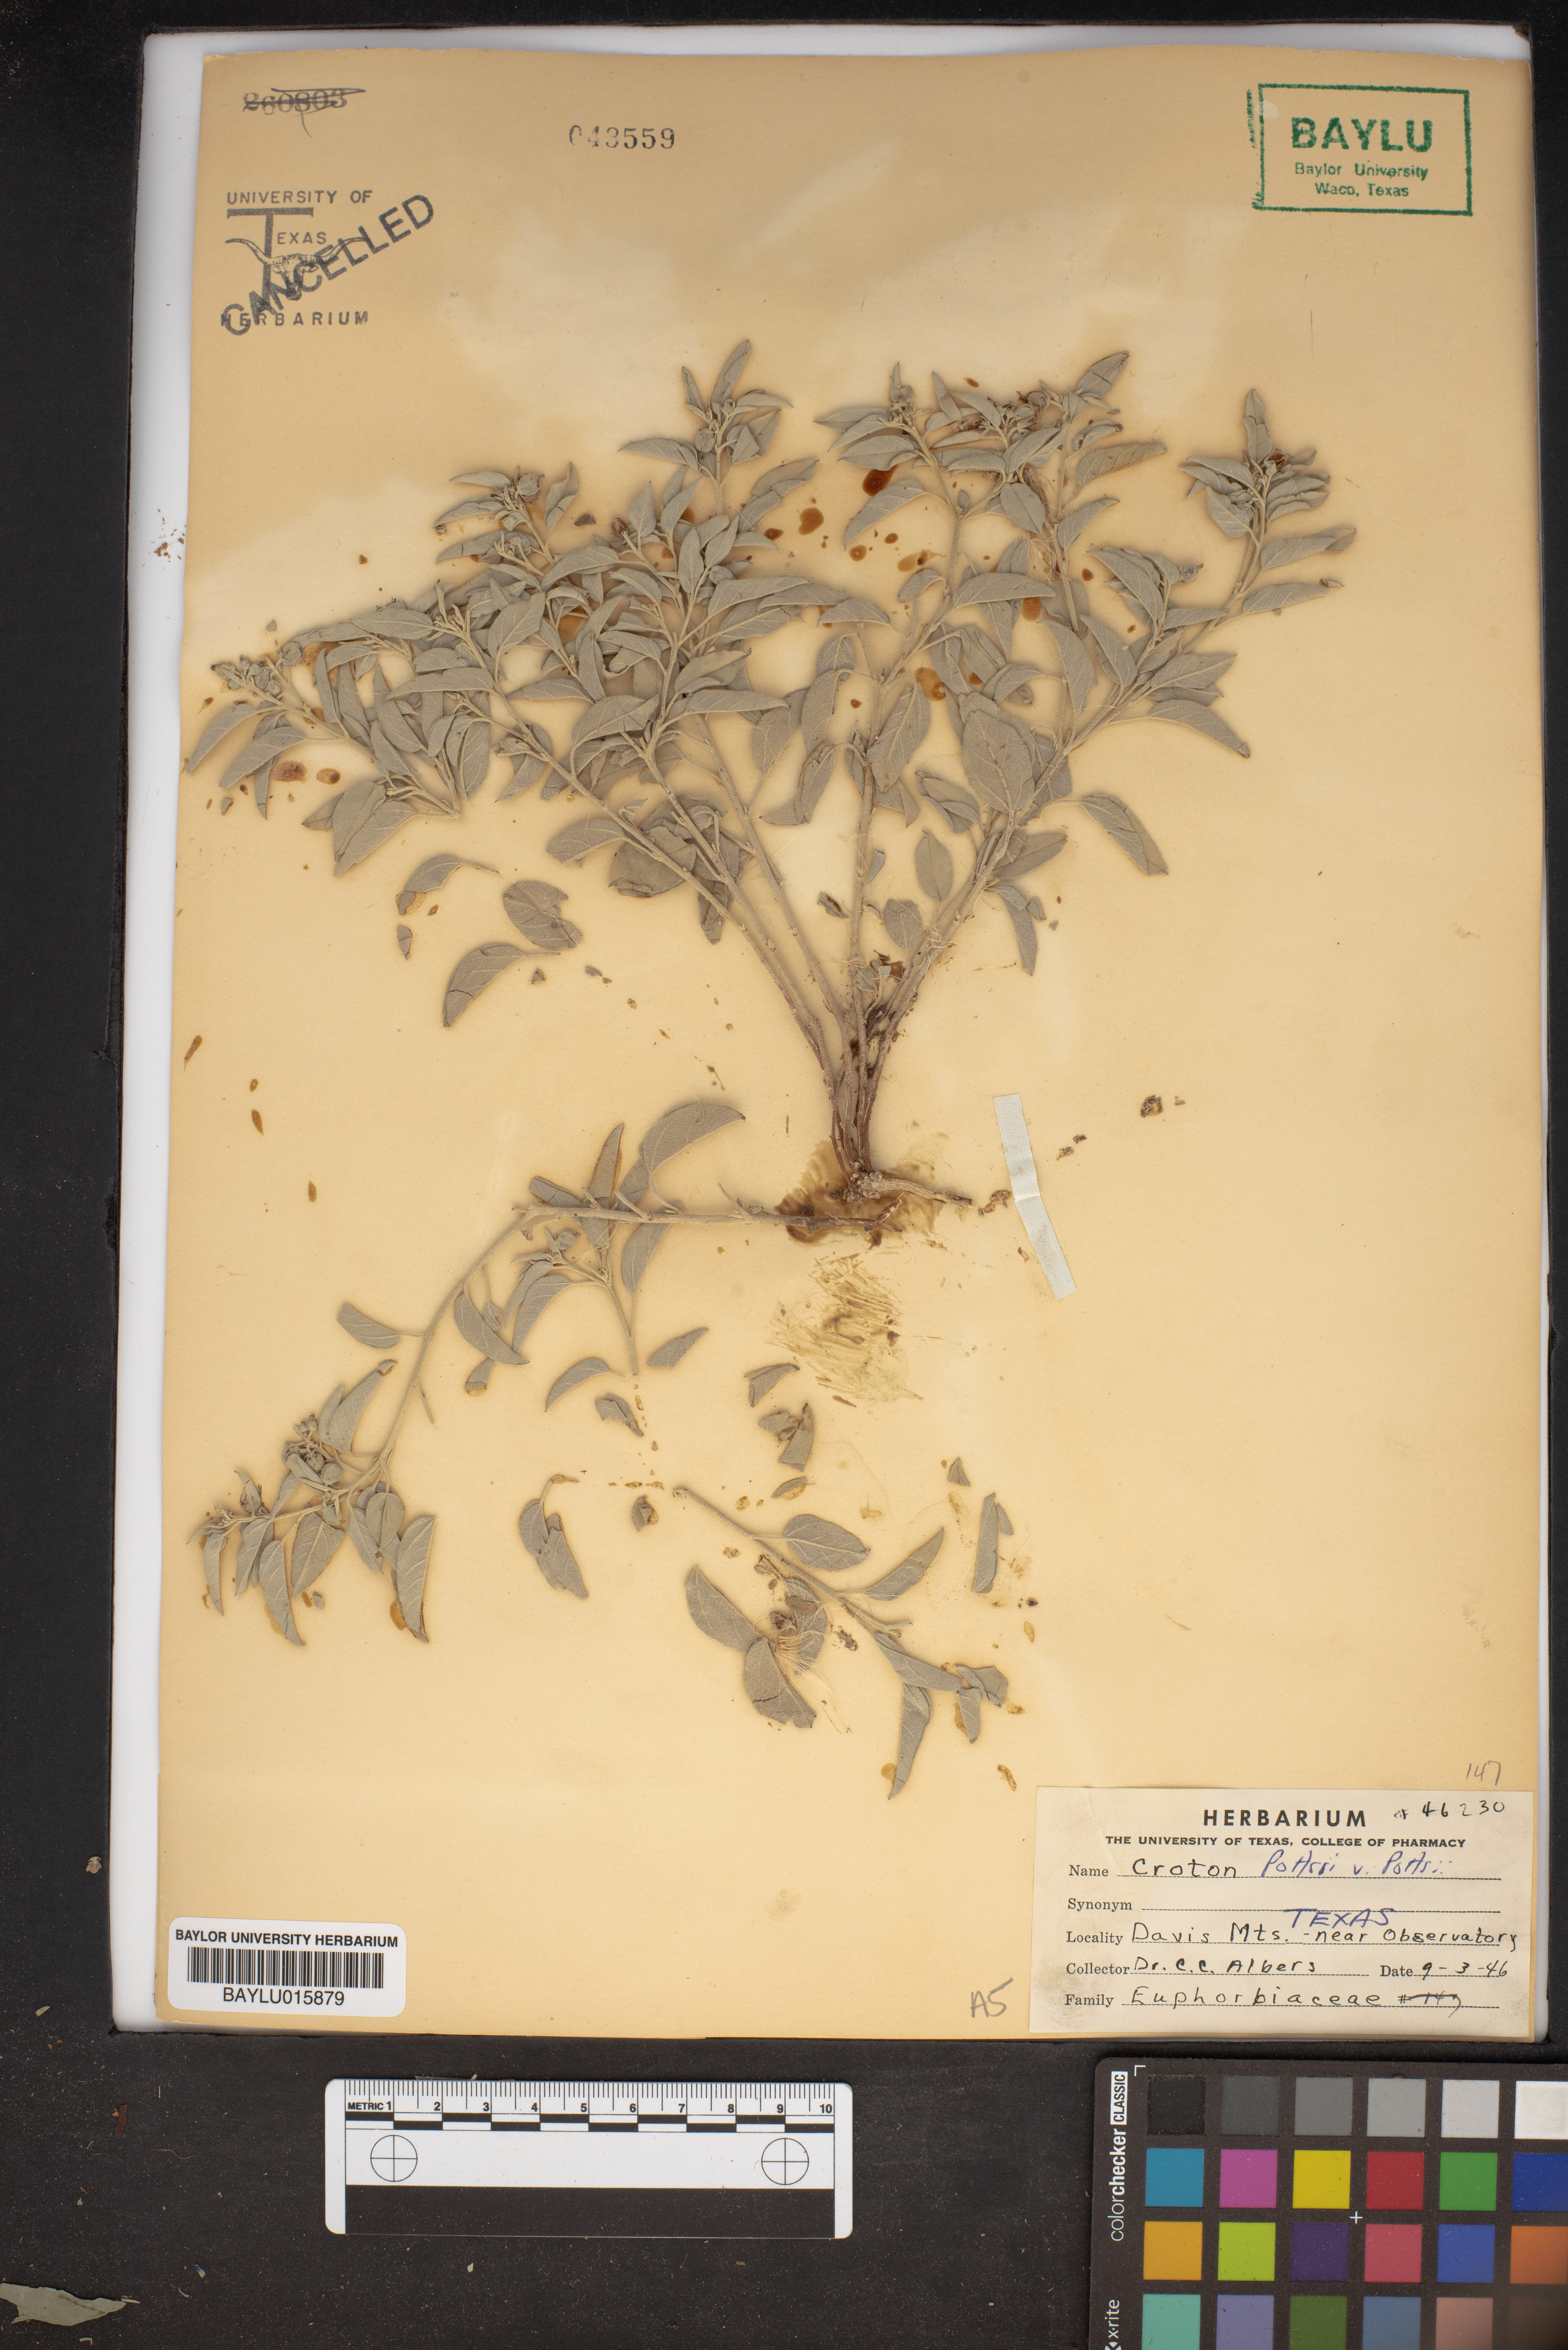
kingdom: Plantae
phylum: Tracheophyta
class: Magnoliopsida
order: Malpighiales
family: Euphorbiaceae
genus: Croton
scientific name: Croton pottsii
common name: Leatherweed
